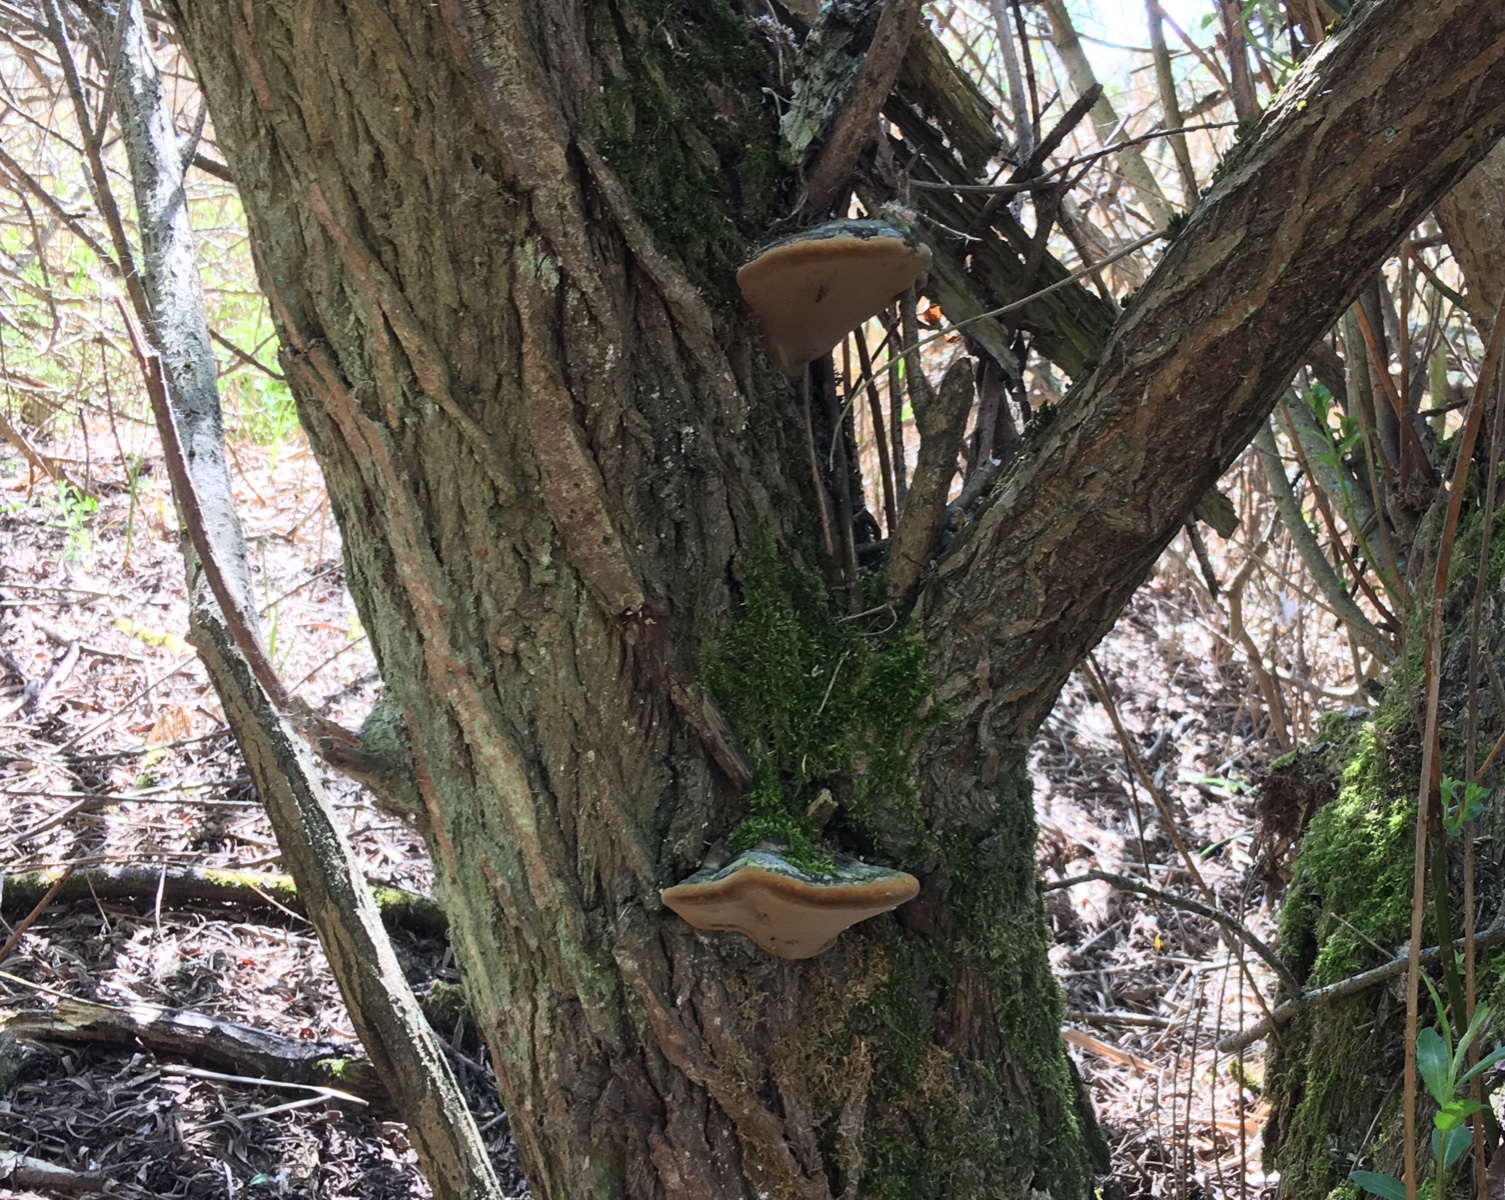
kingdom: Fungi
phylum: Basidiomycota
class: Agaricomycetes
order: Hymenochaetales
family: Hymenochaetaceae
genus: Phellinus
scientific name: Phellinus igniarius
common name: almindelig ildporesvamp
